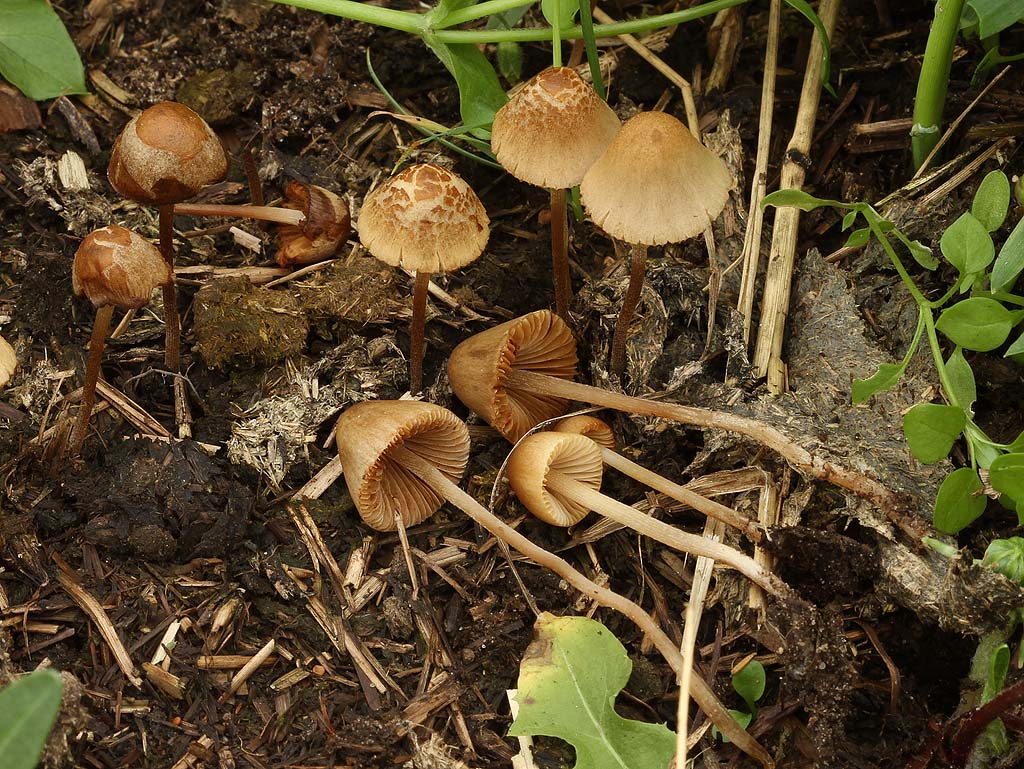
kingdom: Fungi
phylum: Basidiomycota
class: Agaricomycetes
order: Agaricales
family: Bolbitiaceae
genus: Conocybe
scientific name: Conocybe rickenii
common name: møg-keglehat
